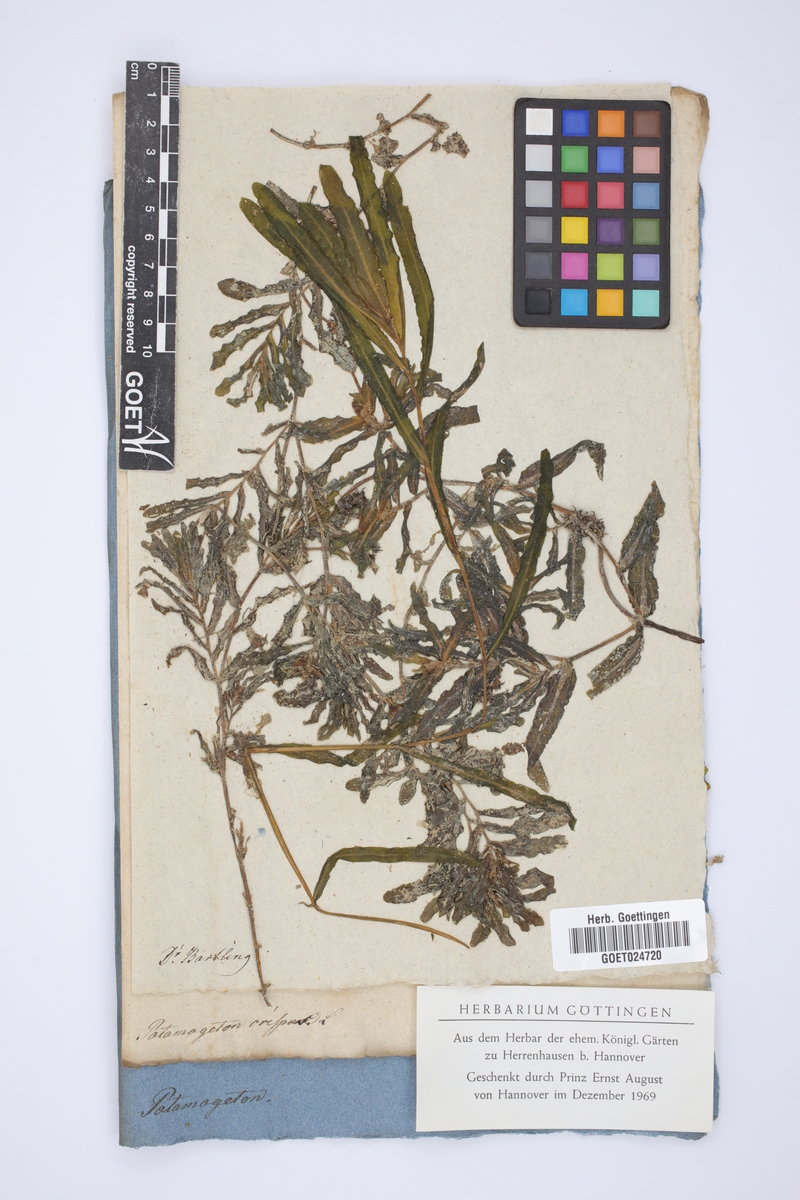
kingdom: Plantae
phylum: Tracheophyta
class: Liliopsida
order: Alismatales
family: Potamogetonaceae
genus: Potamogeton
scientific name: Potamogeton crispus
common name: Curled pondweed
